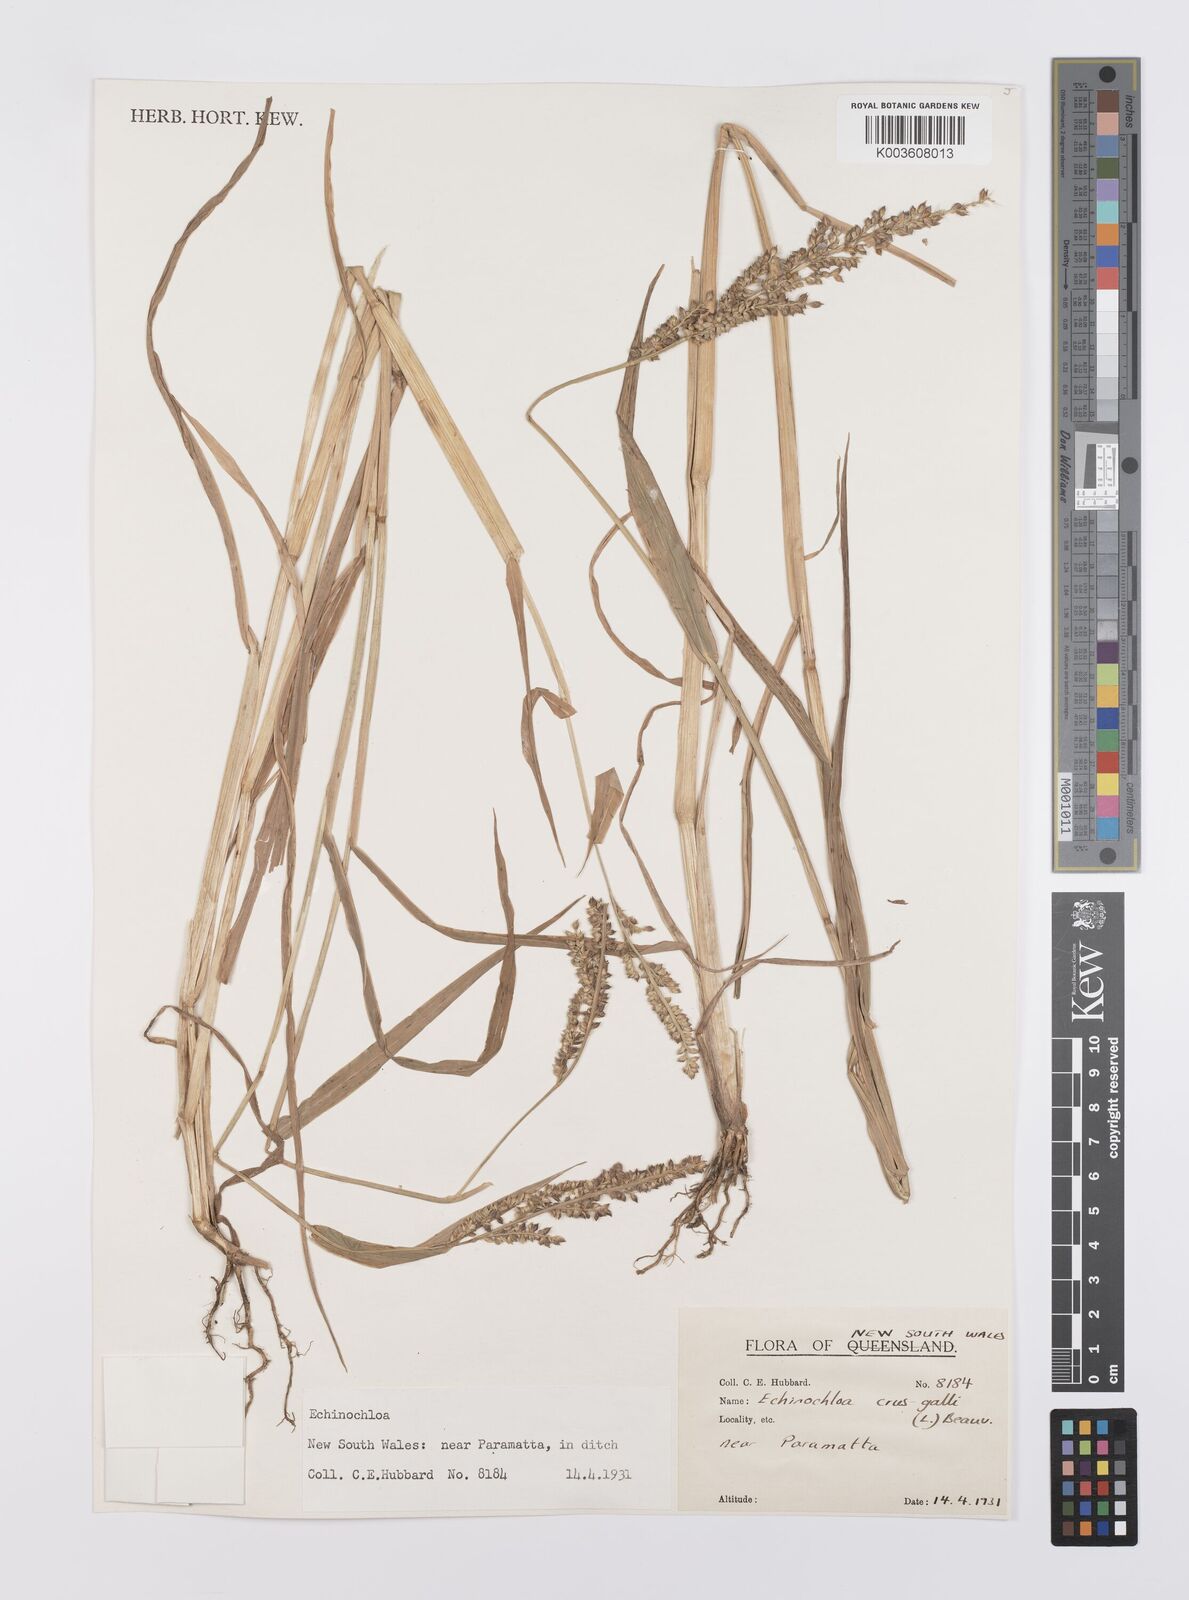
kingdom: Plantae
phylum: Tracheophyta
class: Liliopsida
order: Poales
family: Poaceae
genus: Echinochloa
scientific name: Echinochloa crus-galli
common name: Cockspur
